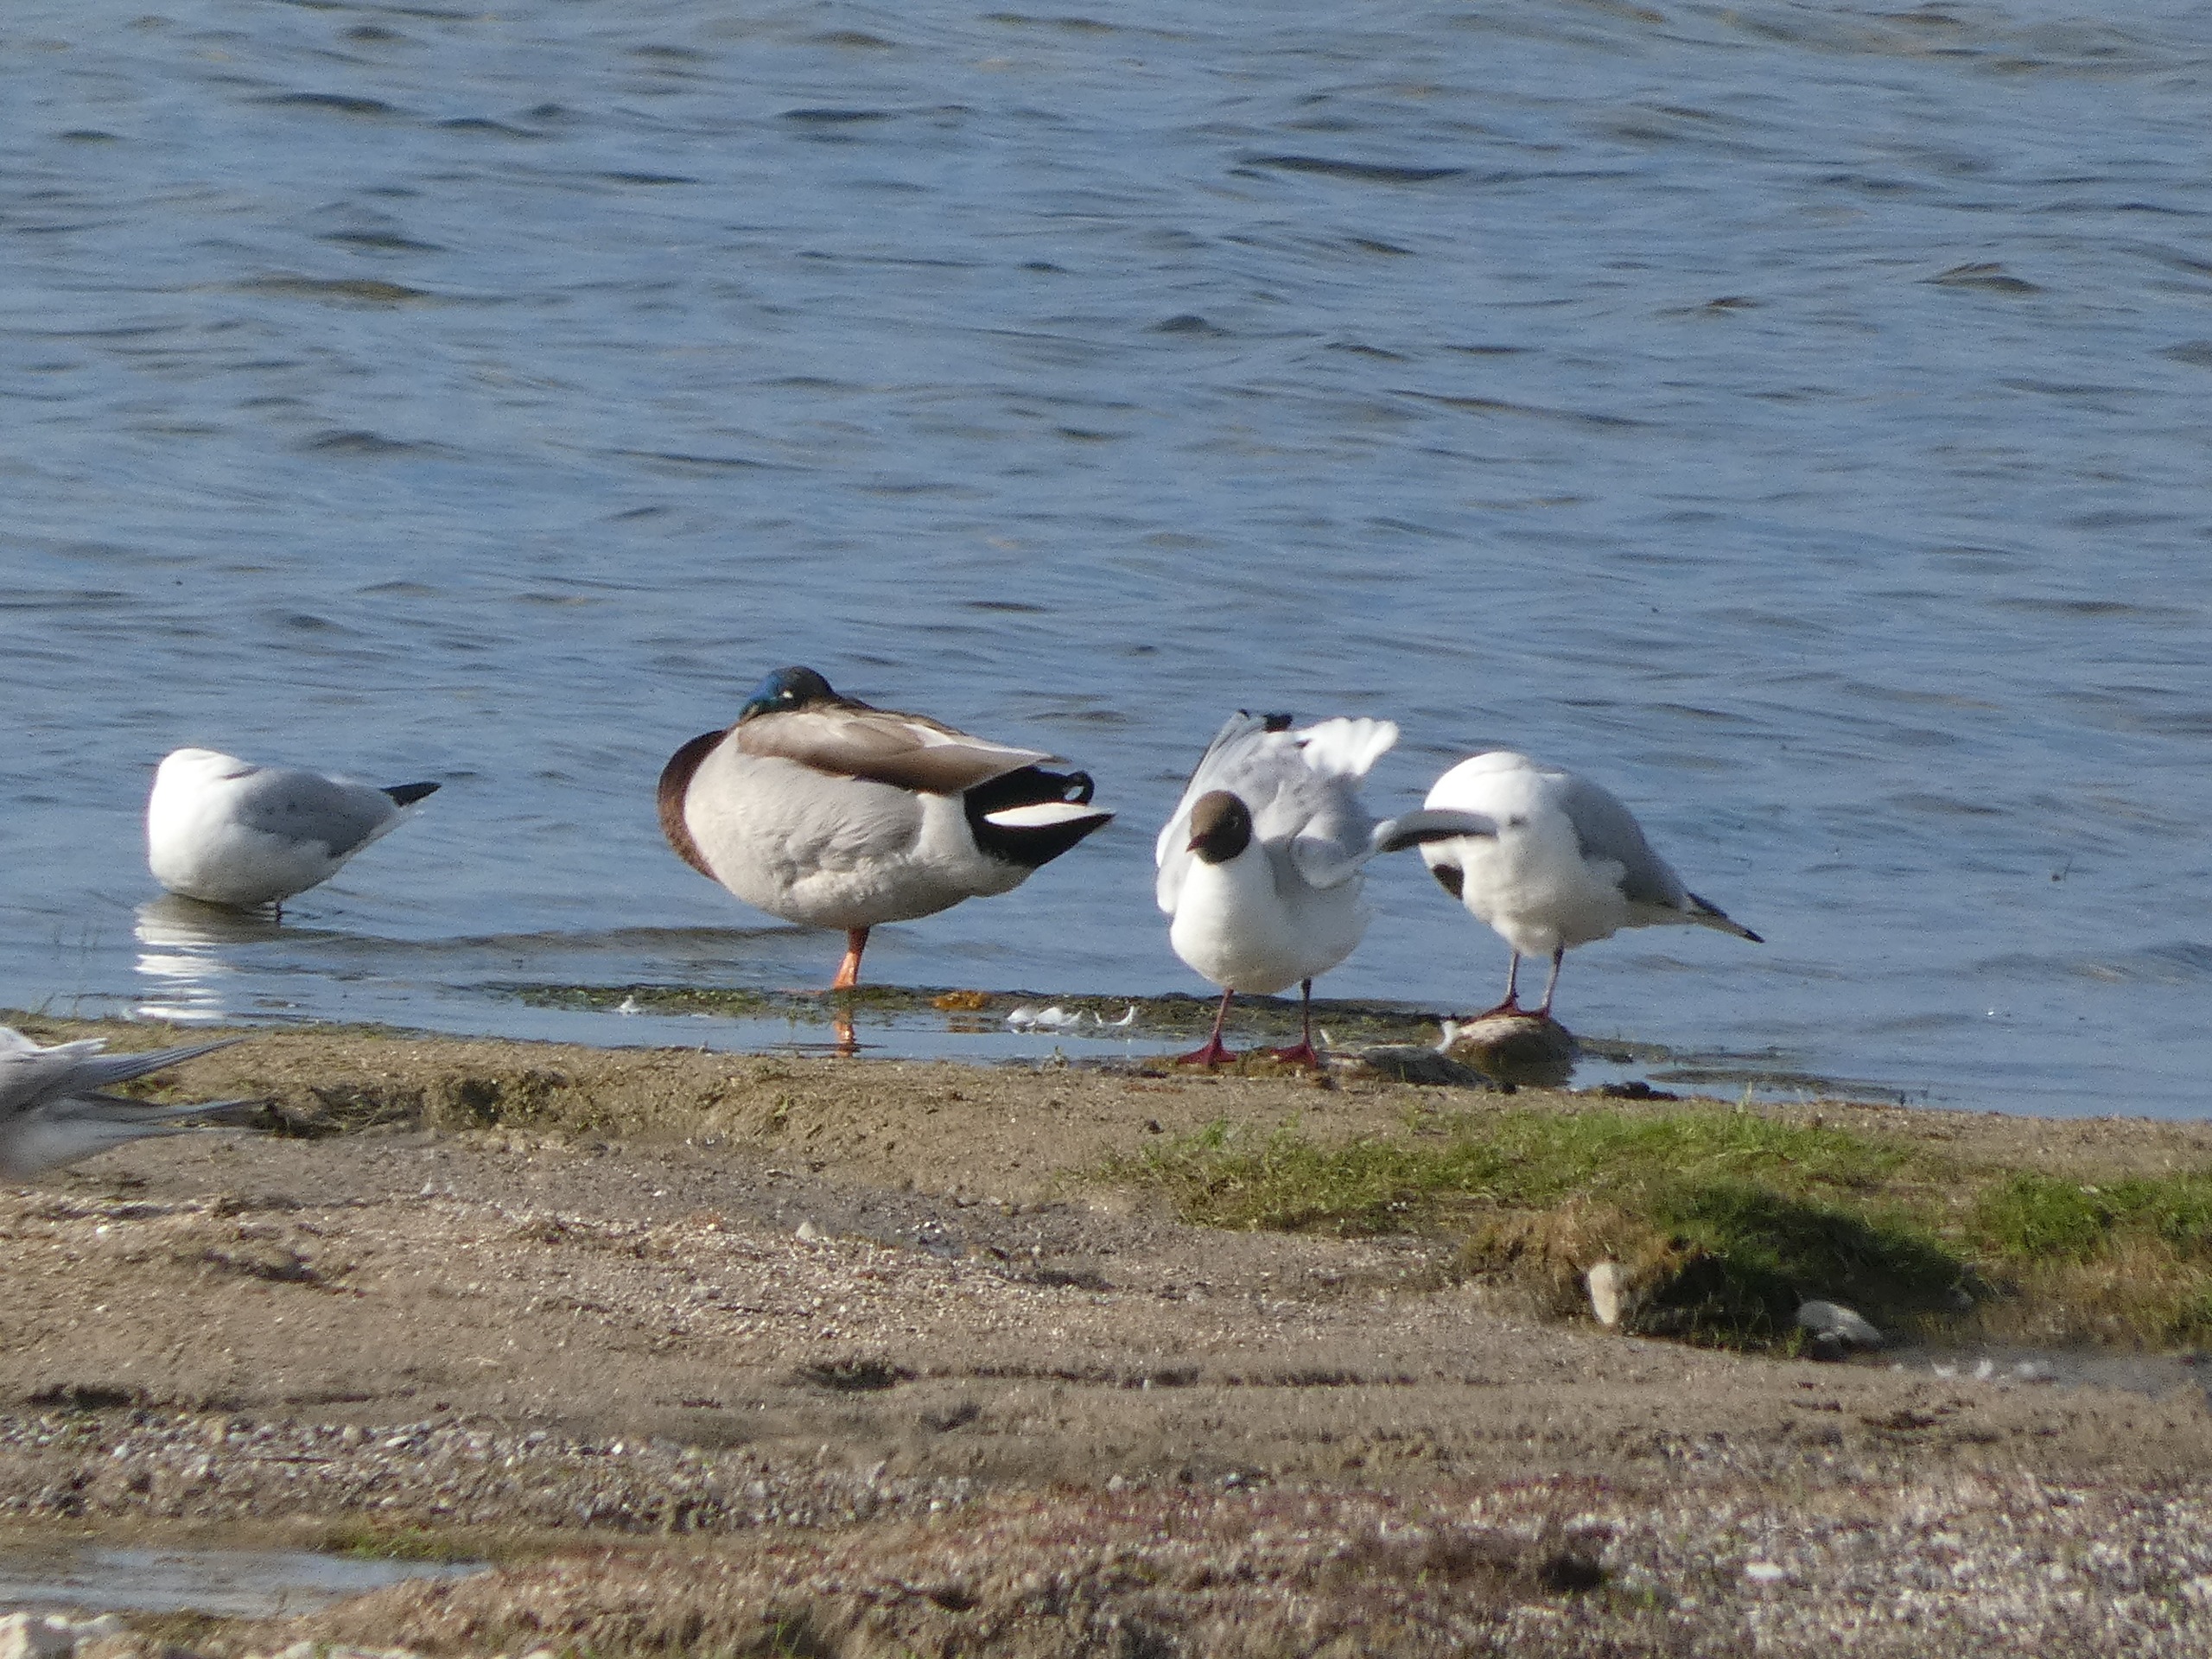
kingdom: Animalia
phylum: Chordata
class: Aves
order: Anseriformes
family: Anatidae
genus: Anas
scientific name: Anas platyrhynchos
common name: Gråand
